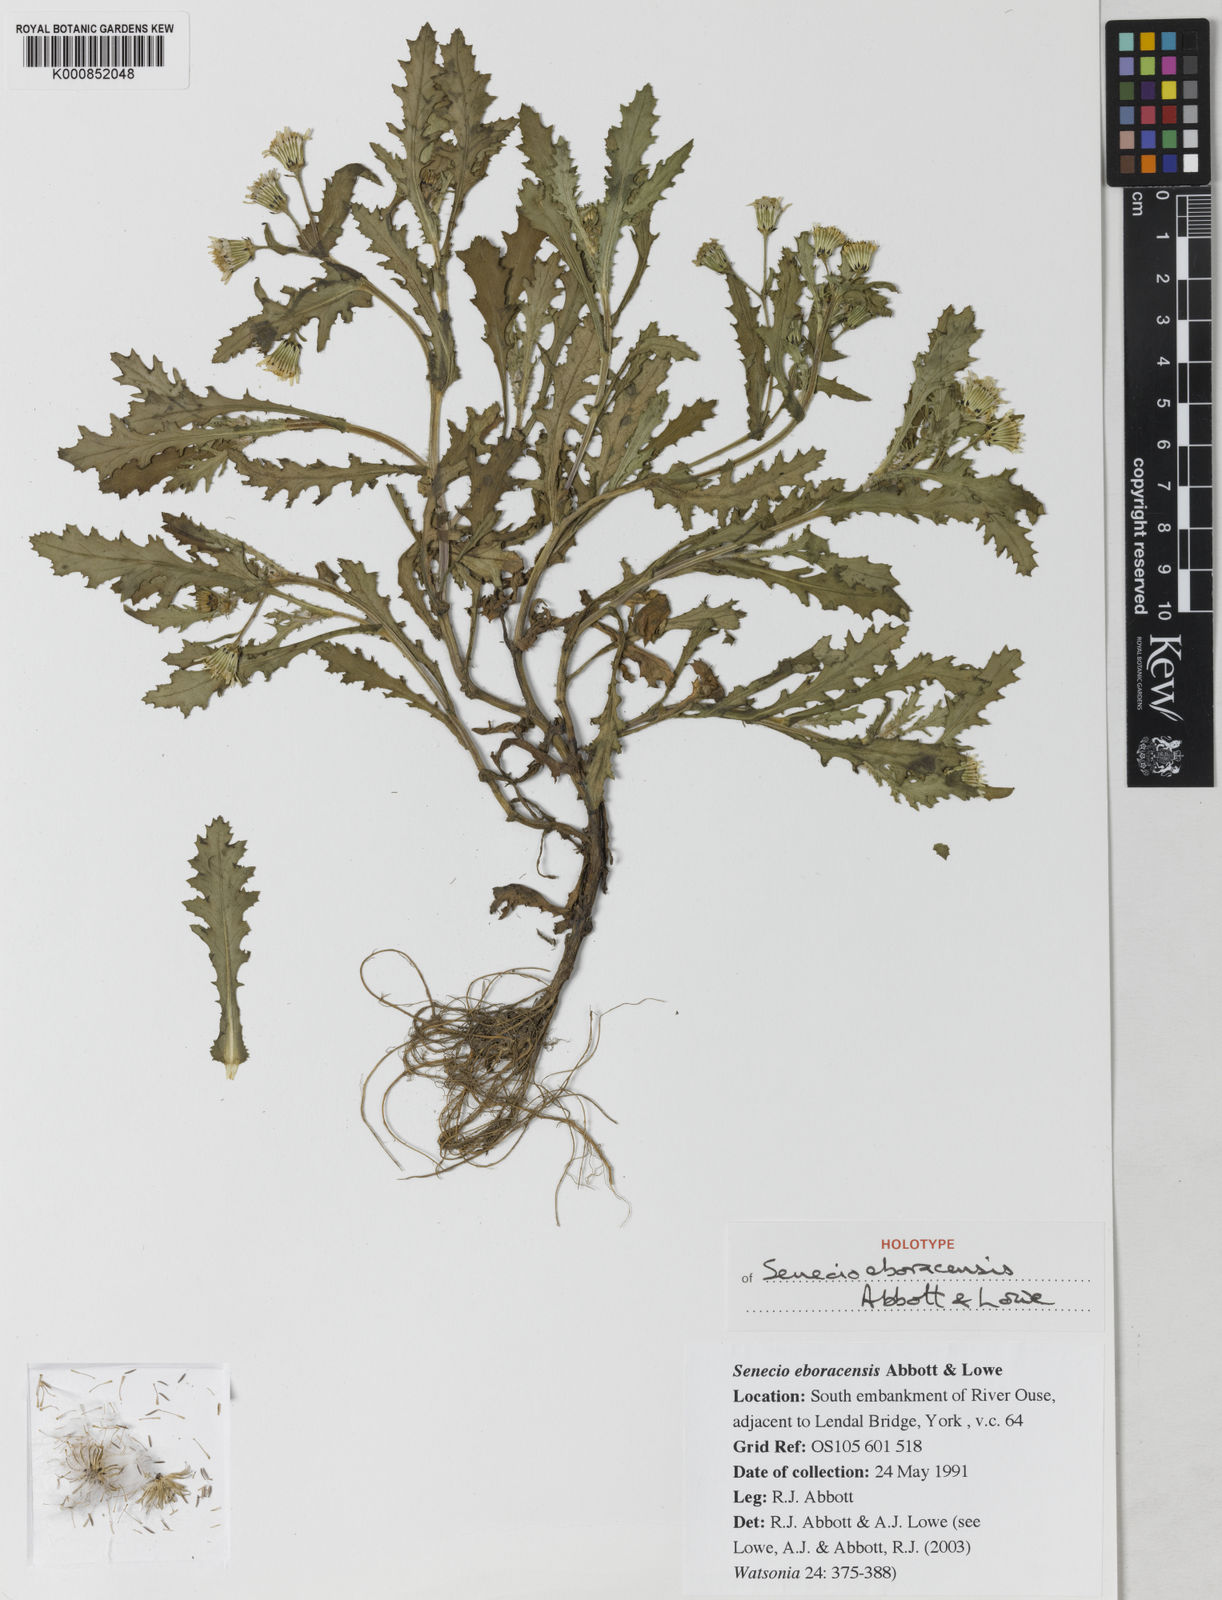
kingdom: Plantae
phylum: Tracheophyta
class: Magnoliopsida
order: Asterales
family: Asteraceae
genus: Senecio
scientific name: Senecio eboracensis
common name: York groundsel
